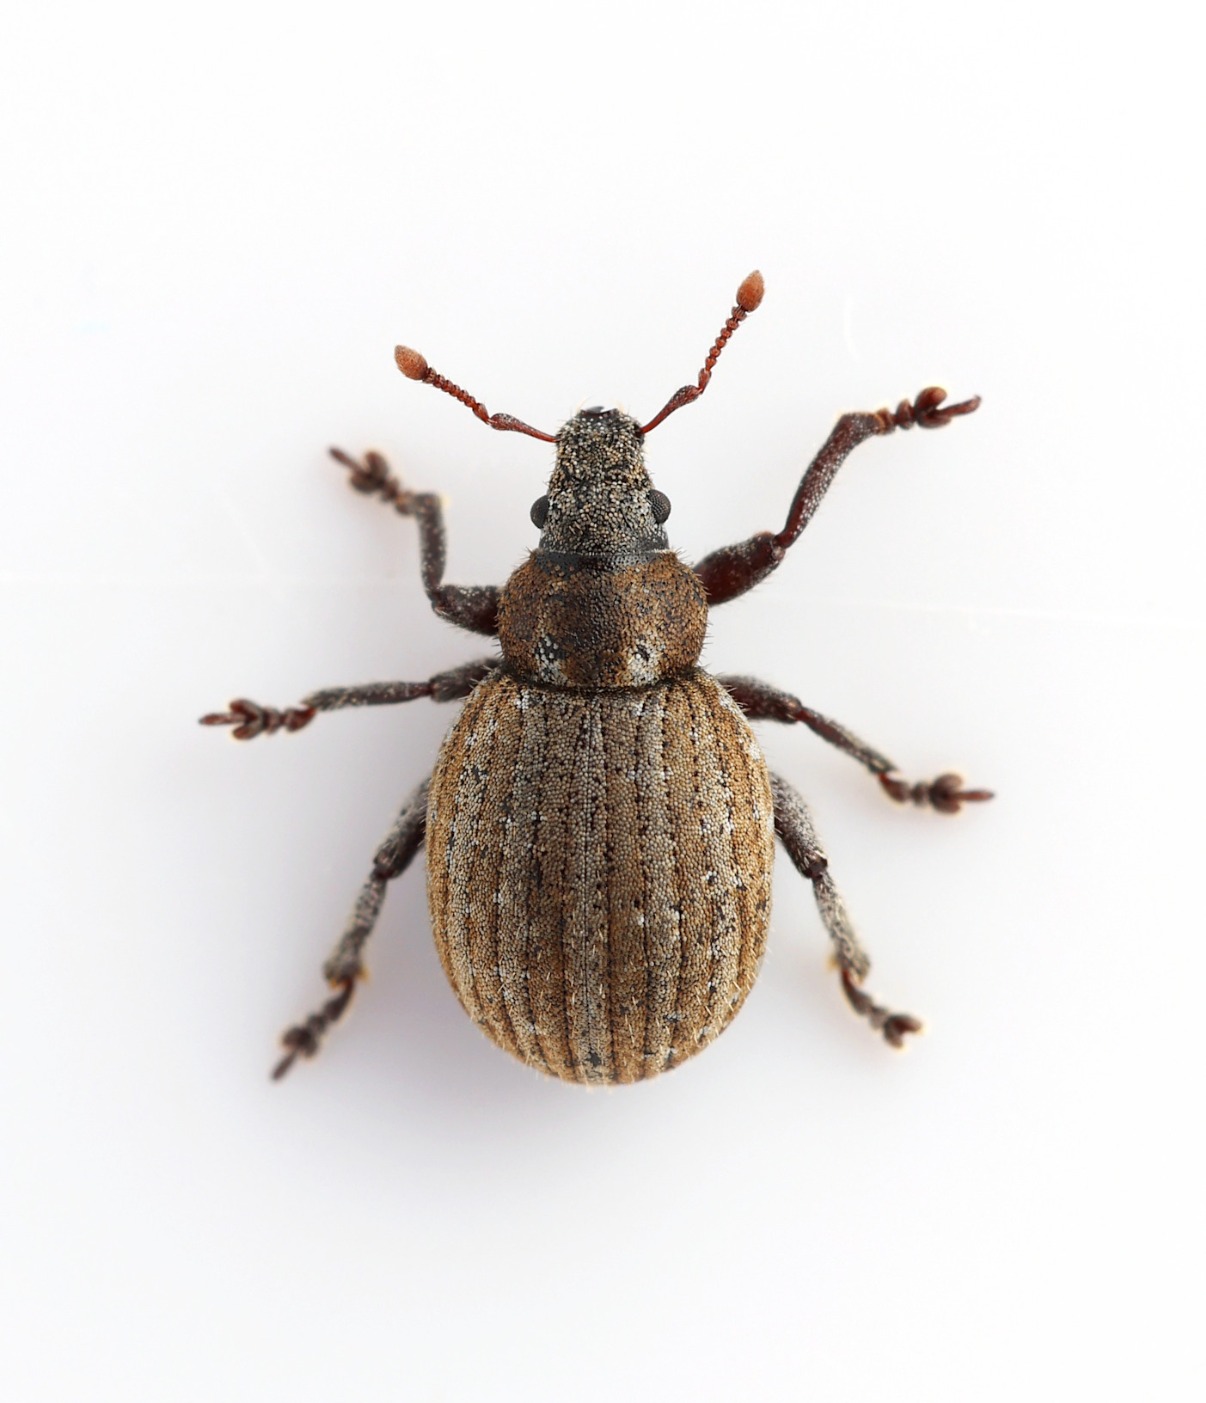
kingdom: Animalia
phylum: Arthropoda
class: Insecta
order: Coleoptera
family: Curculionidae
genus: Philopedon
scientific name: Philopedon plagiatum
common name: Sandgråsnude
